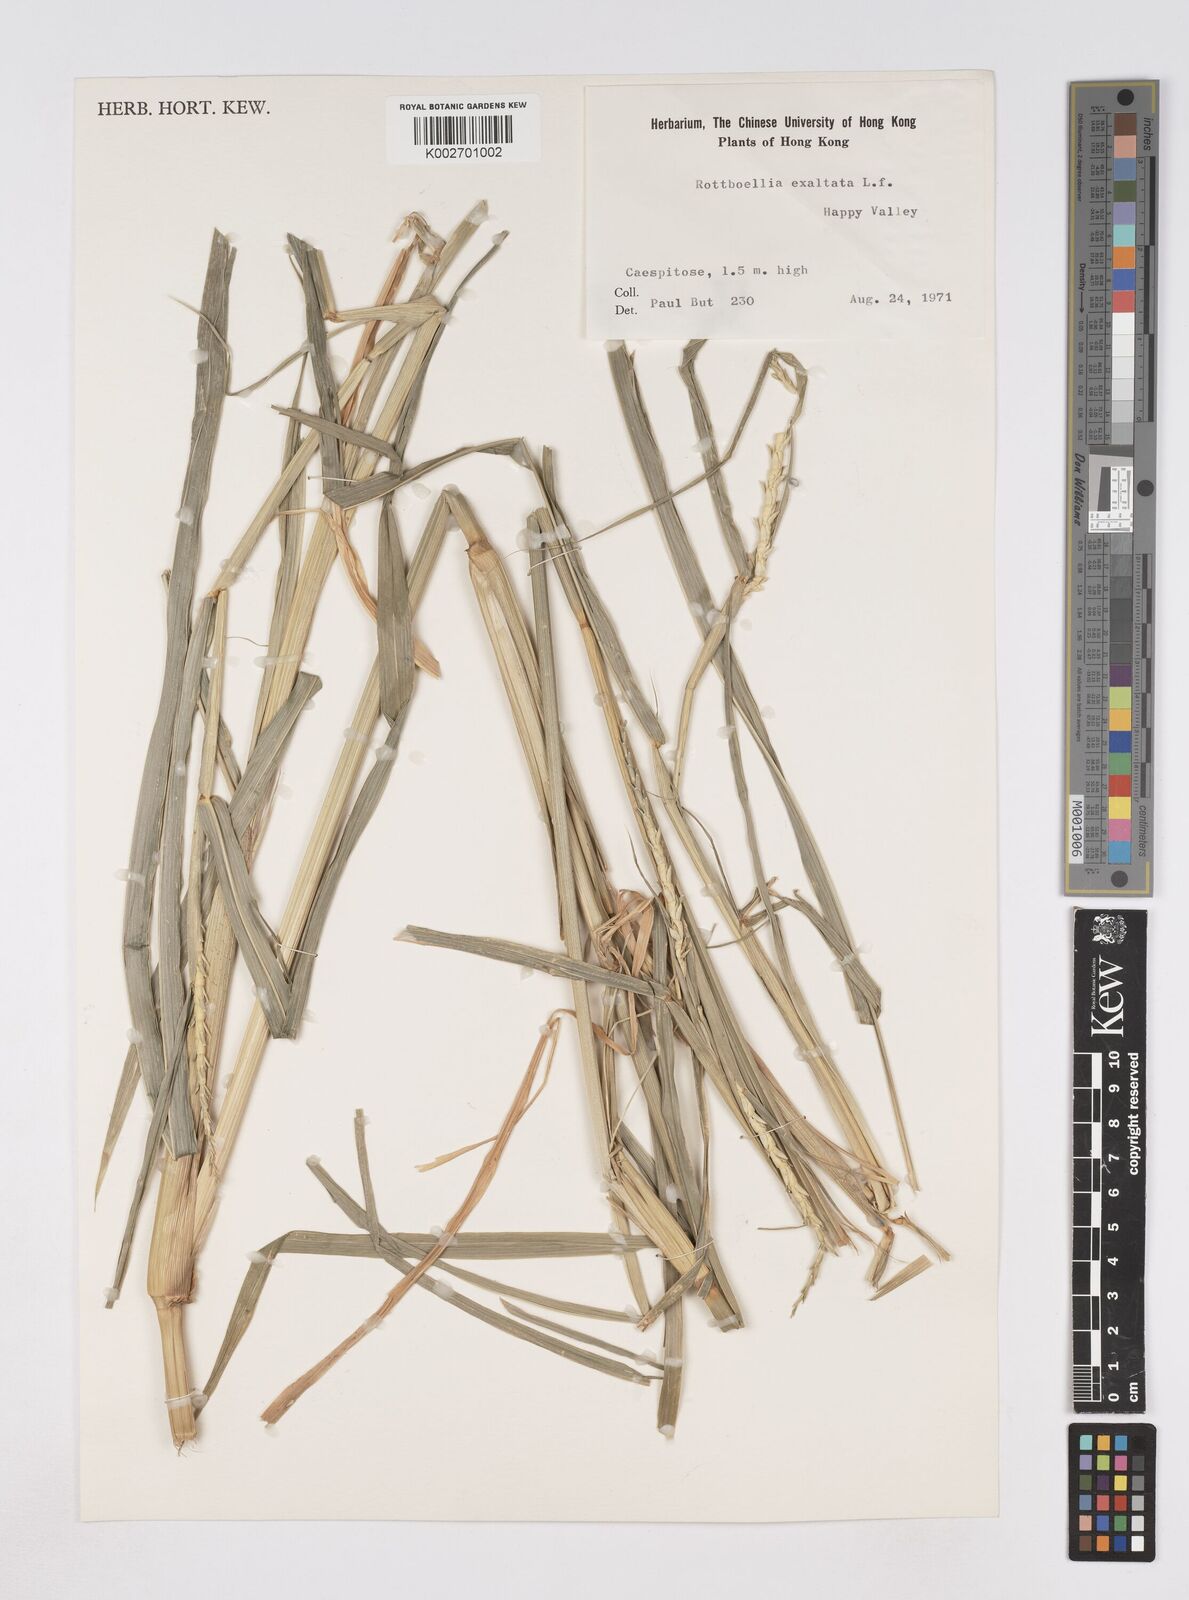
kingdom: Plantae
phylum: Tracheophyta
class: Liliopsida
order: Poales
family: Poaceae
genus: Rottboellia
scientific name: Rottboellia cochinchinensis
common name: Itchgrass
